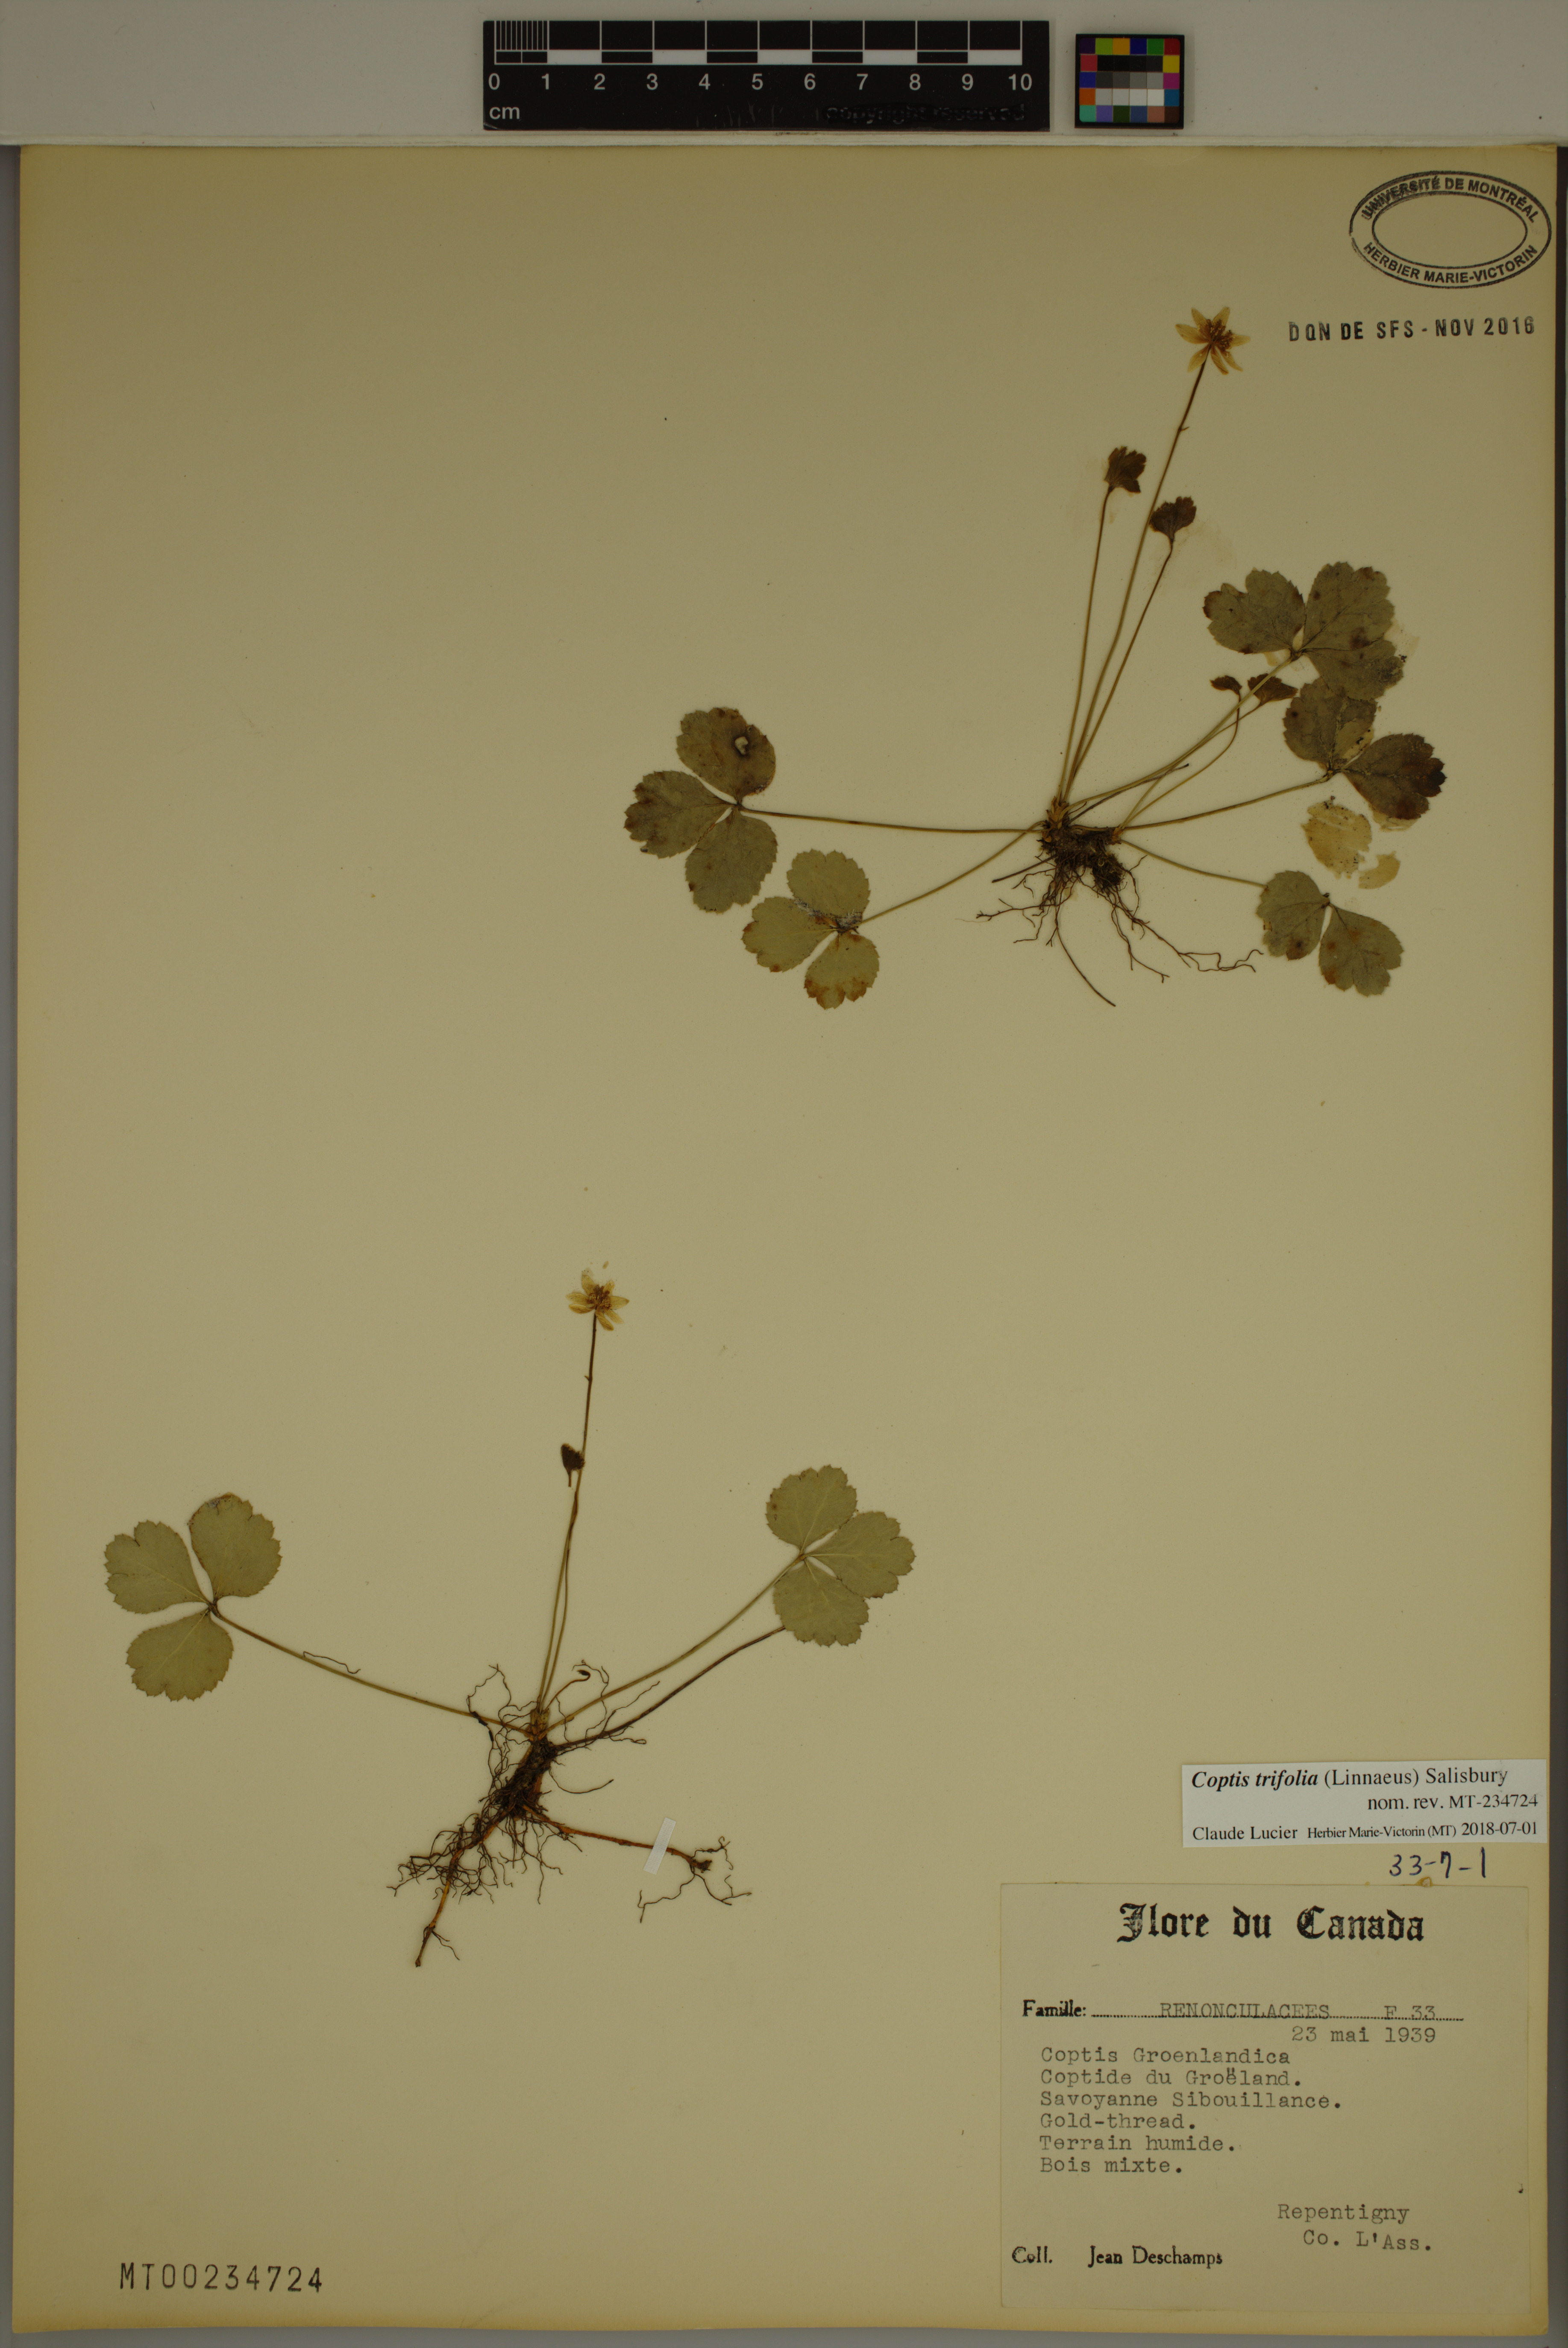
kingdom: Plantae
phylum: Tracheophyta
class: Magnoliopsida
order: Ranunculales
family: Ranunculaceae
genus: Coptis
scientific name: Coptis trifolia
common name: Canker-root
